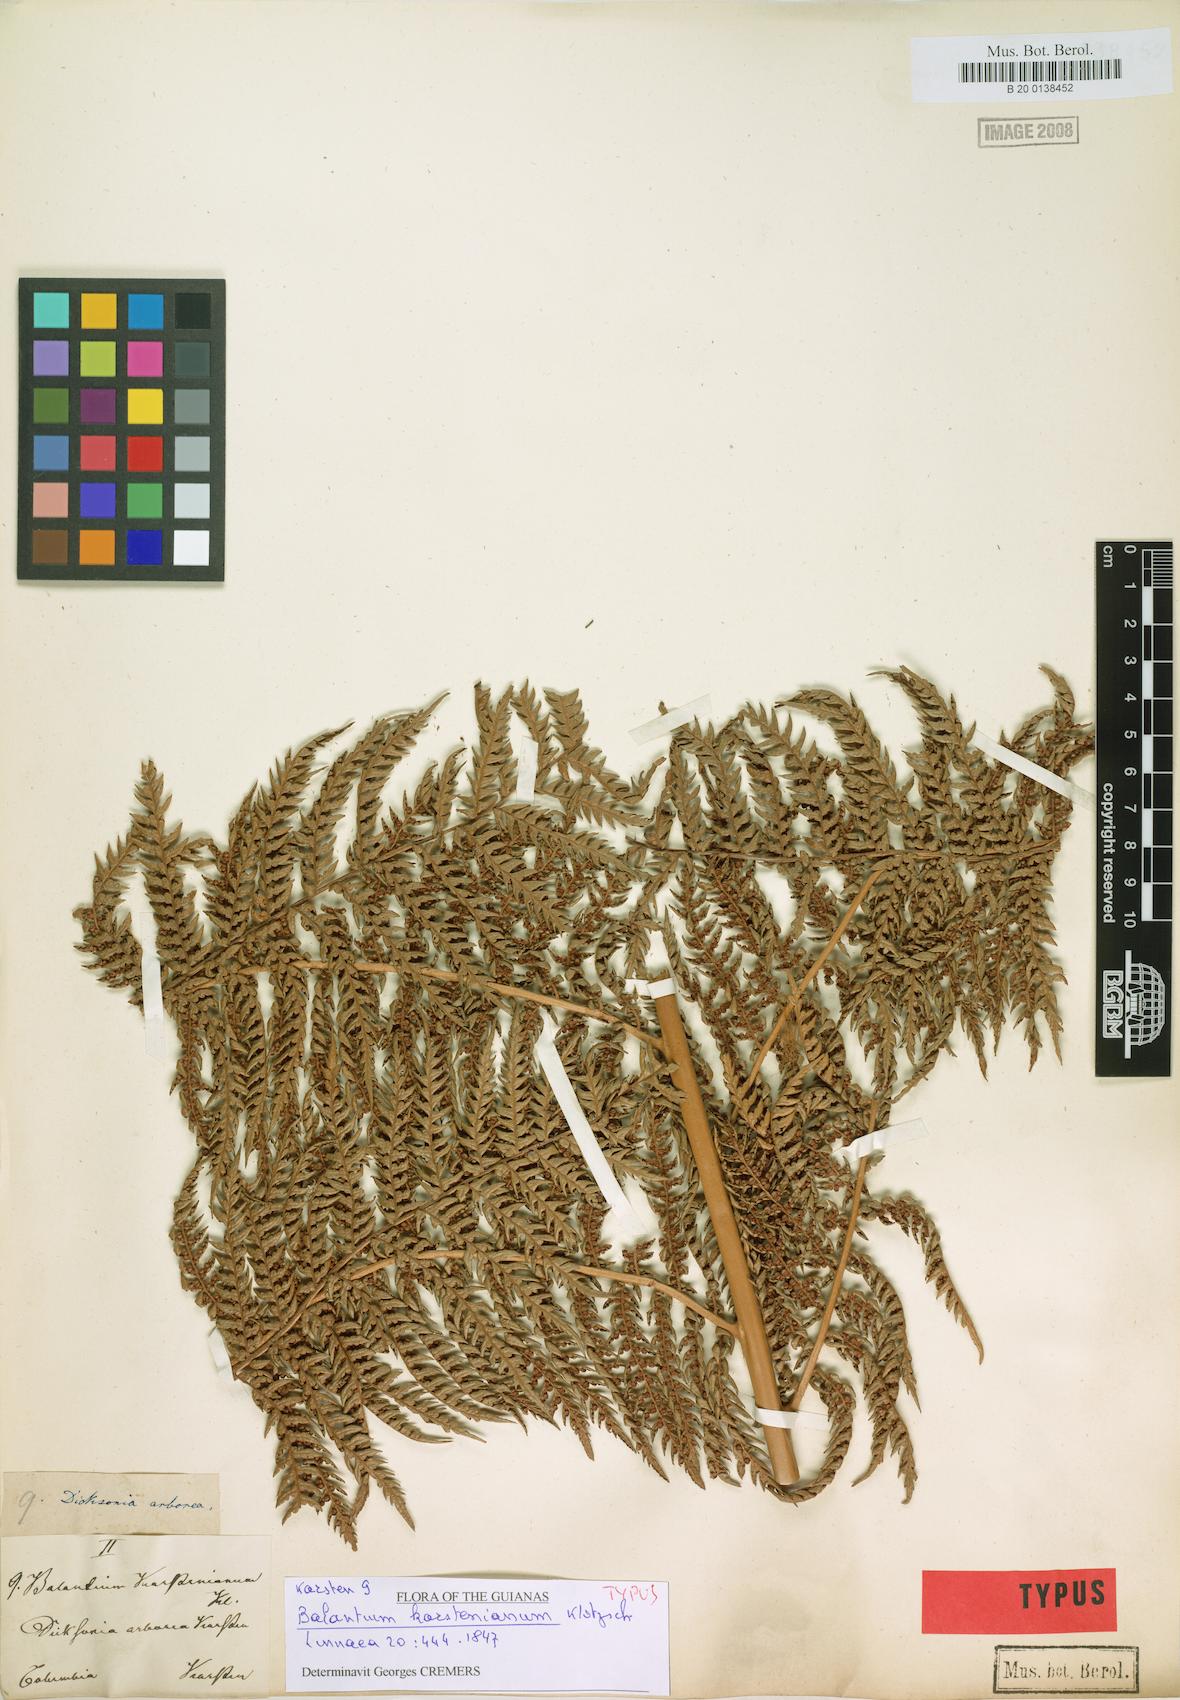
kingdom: Plantae
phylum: Tracheophyta
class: Polypodiopsida
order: Cyatheales
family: Dicksoniaceae
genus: Dicksonia
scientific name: Dicksonia karsteniana
